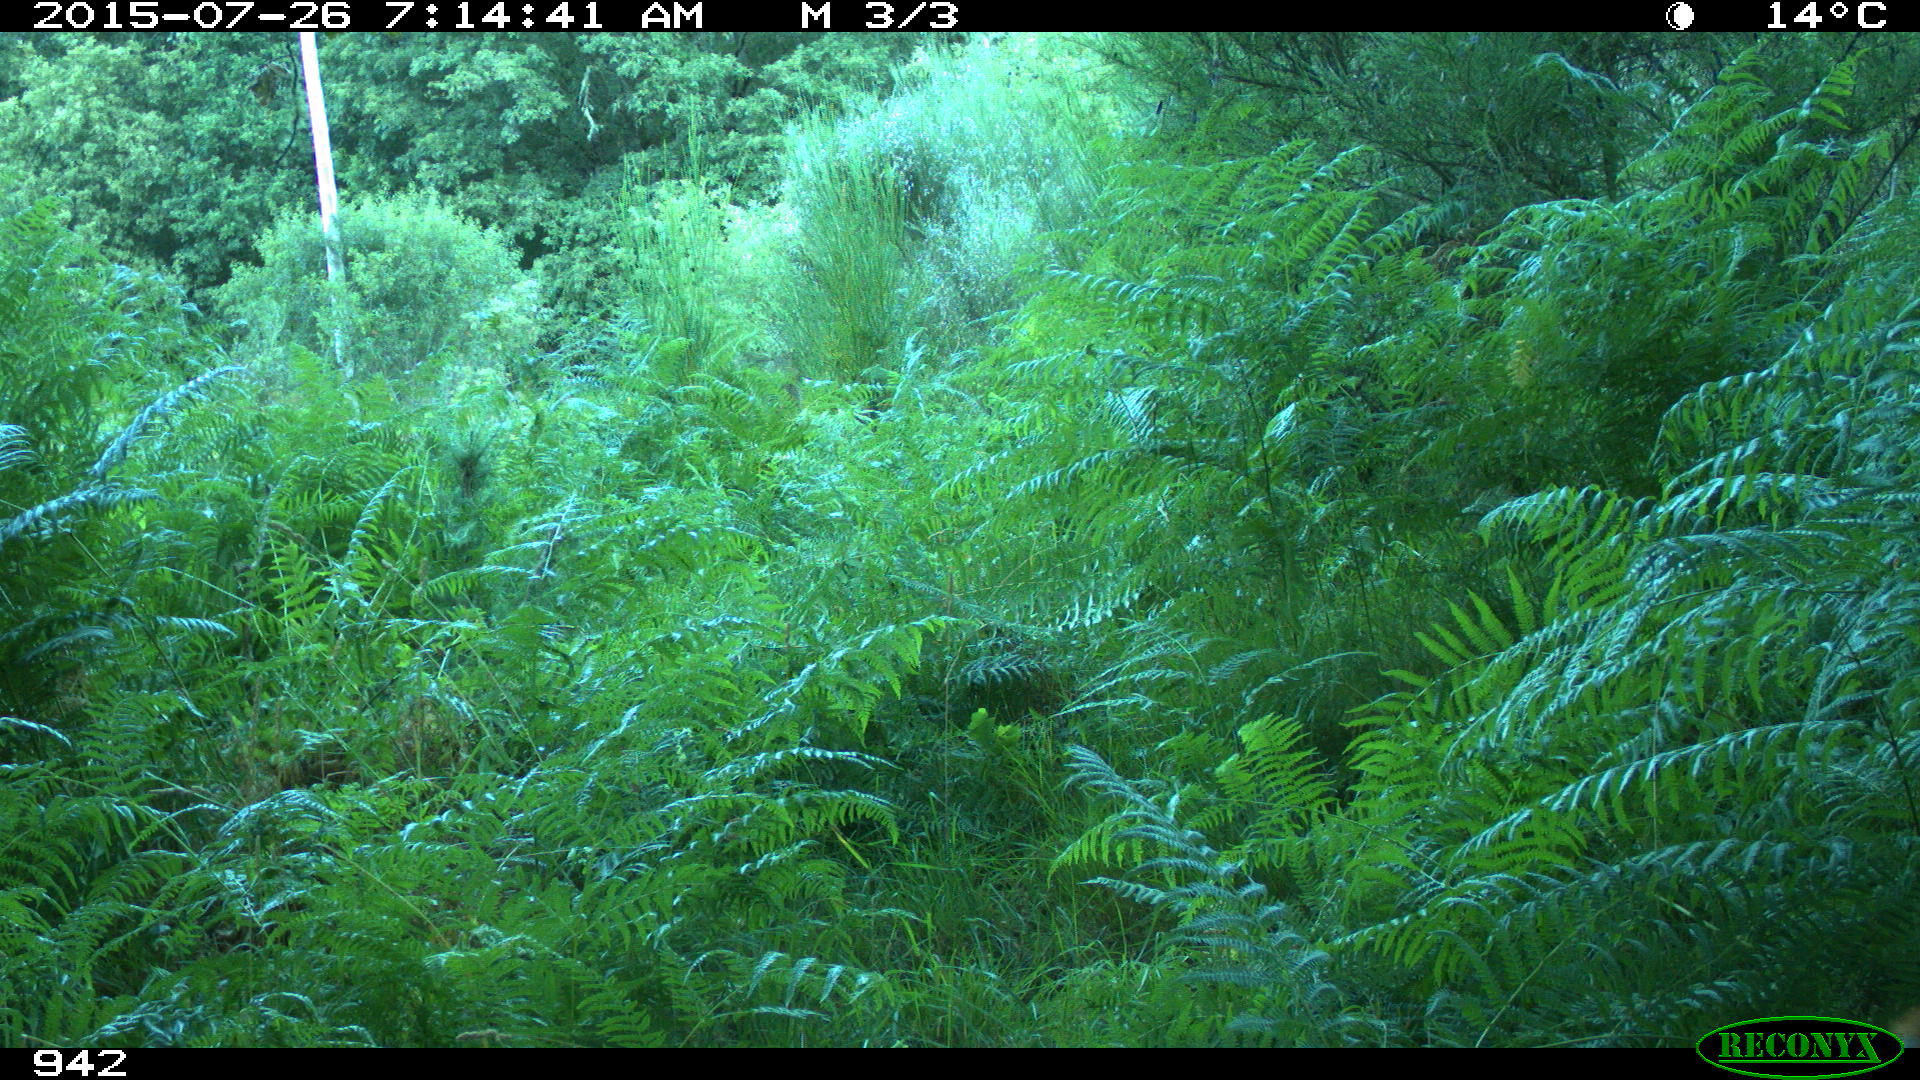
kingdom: Animalia
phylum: Chordata
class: Mammalia
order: Artiodactyla
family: Bovidae
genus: Bos
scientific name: Bos taurus
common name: Domesticated cattle
